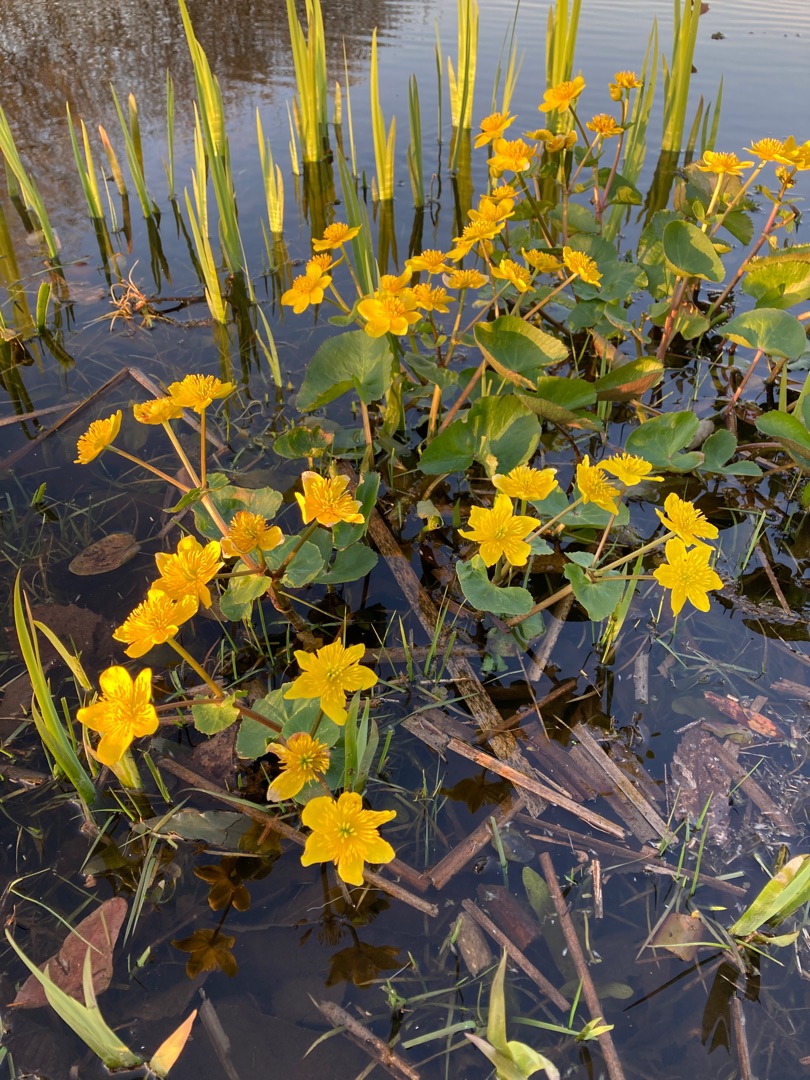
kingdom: Plantae
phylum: Tracheophyta
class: Magnoliopsida
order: Ranunculales
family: Ranunculaceae
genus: Caltha
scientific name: Caltha palustris
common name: Eng-kabbeleje
